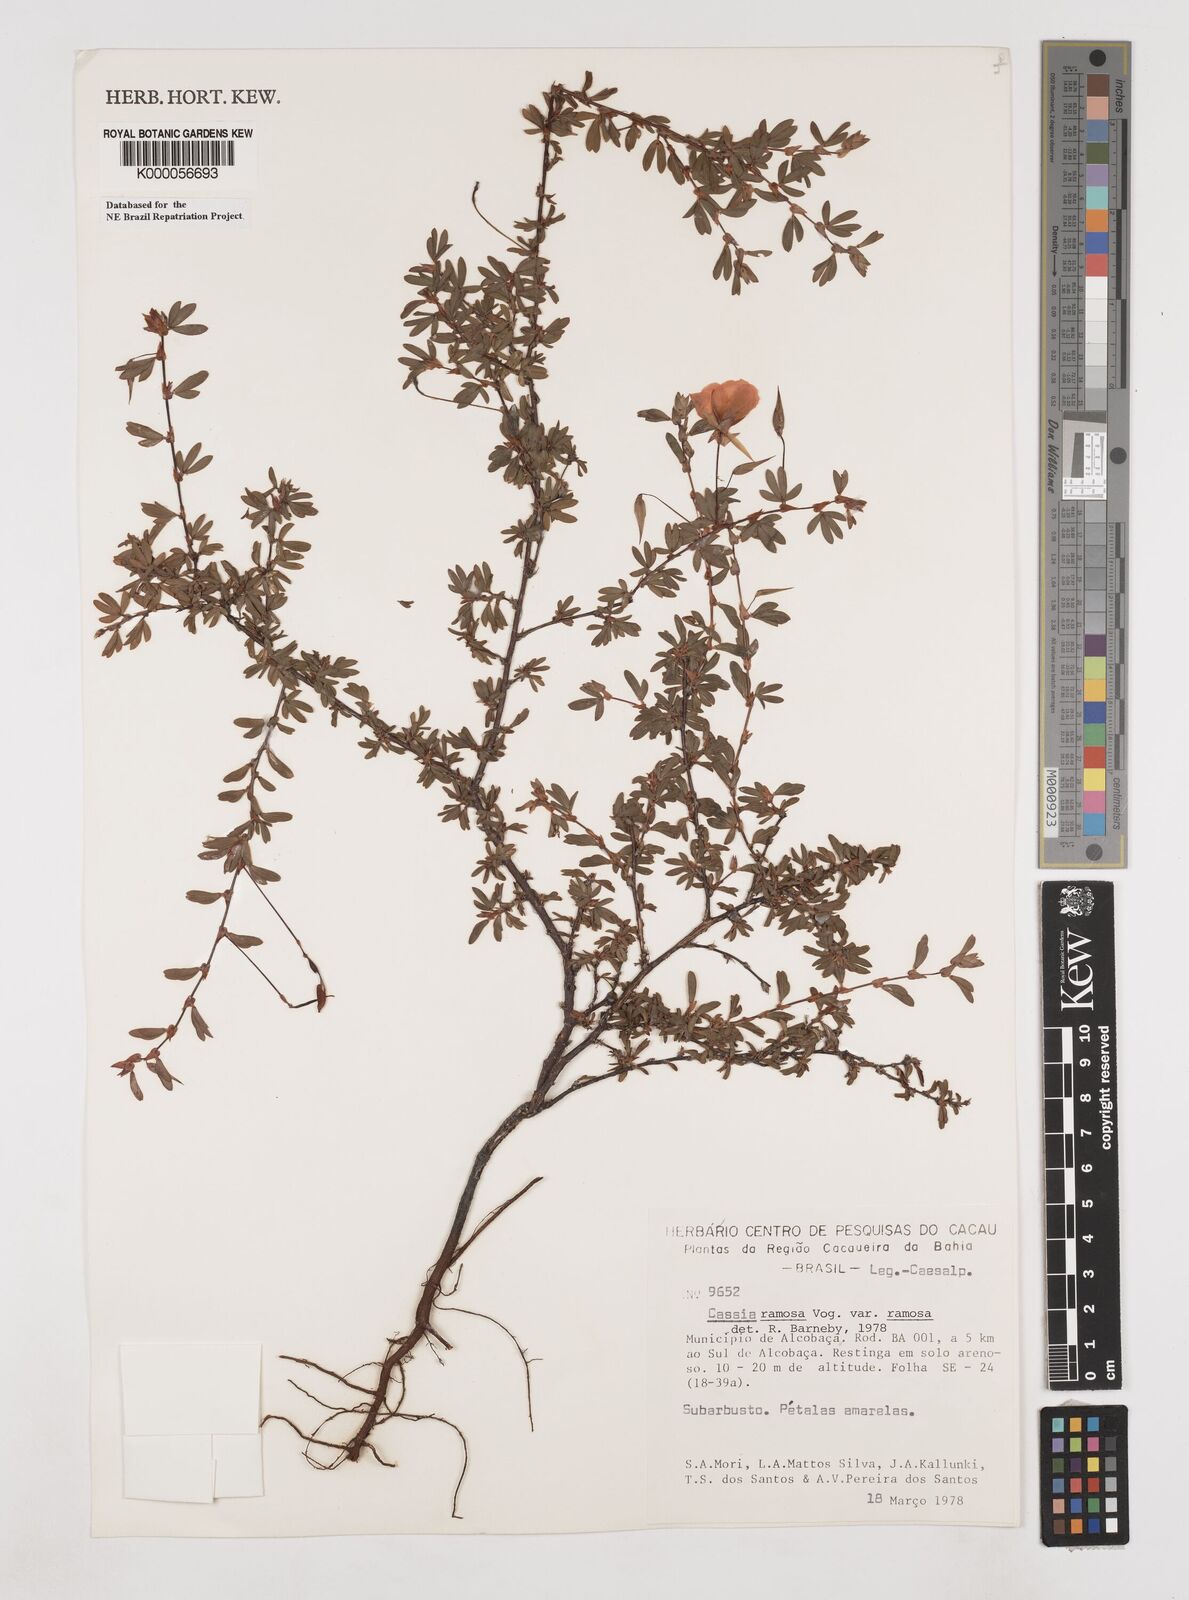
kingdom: Plantae
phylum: Tracheophyta
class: Magnoliopsida
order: Fabales
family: Fabaceae
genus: Chamaecrista
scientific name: Chamaecrista ramosa
